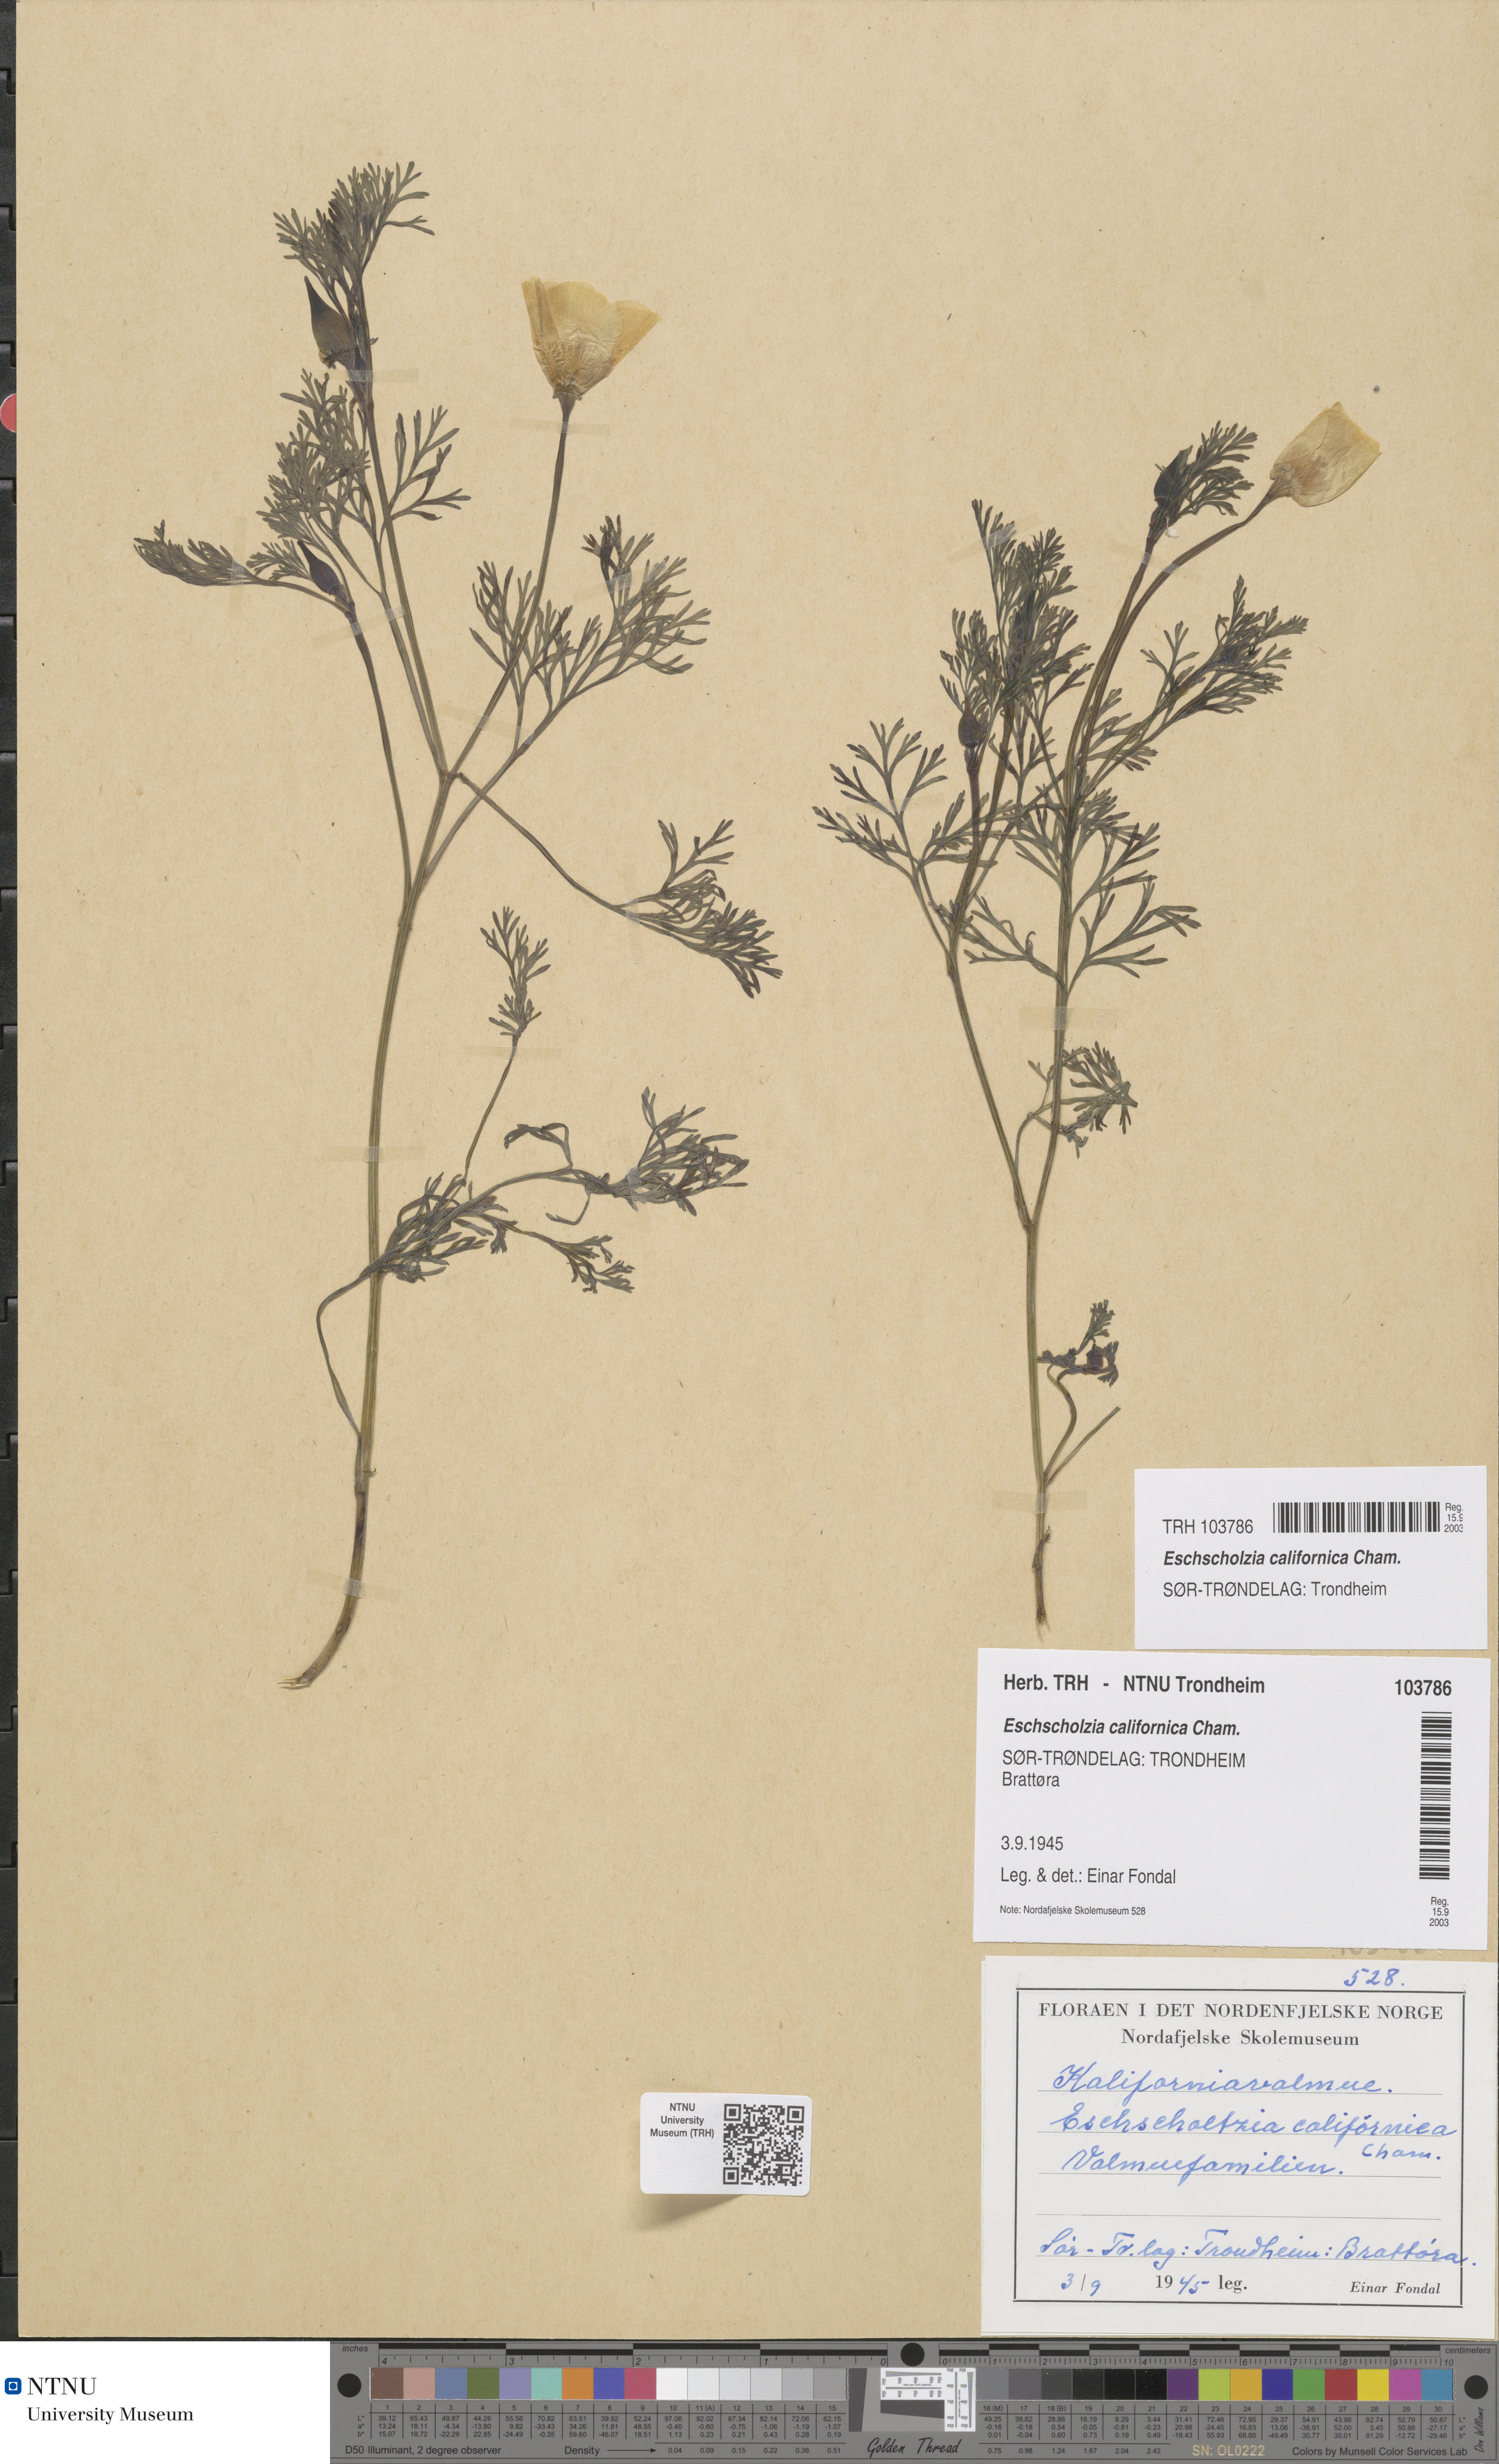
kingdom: Plantae
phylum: Tracheophyta
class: Magnoliopsida
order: Ranunculales
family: Papaveraceae
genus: Eschscholzia
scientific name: Eschscholzia californica
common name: California poppy
